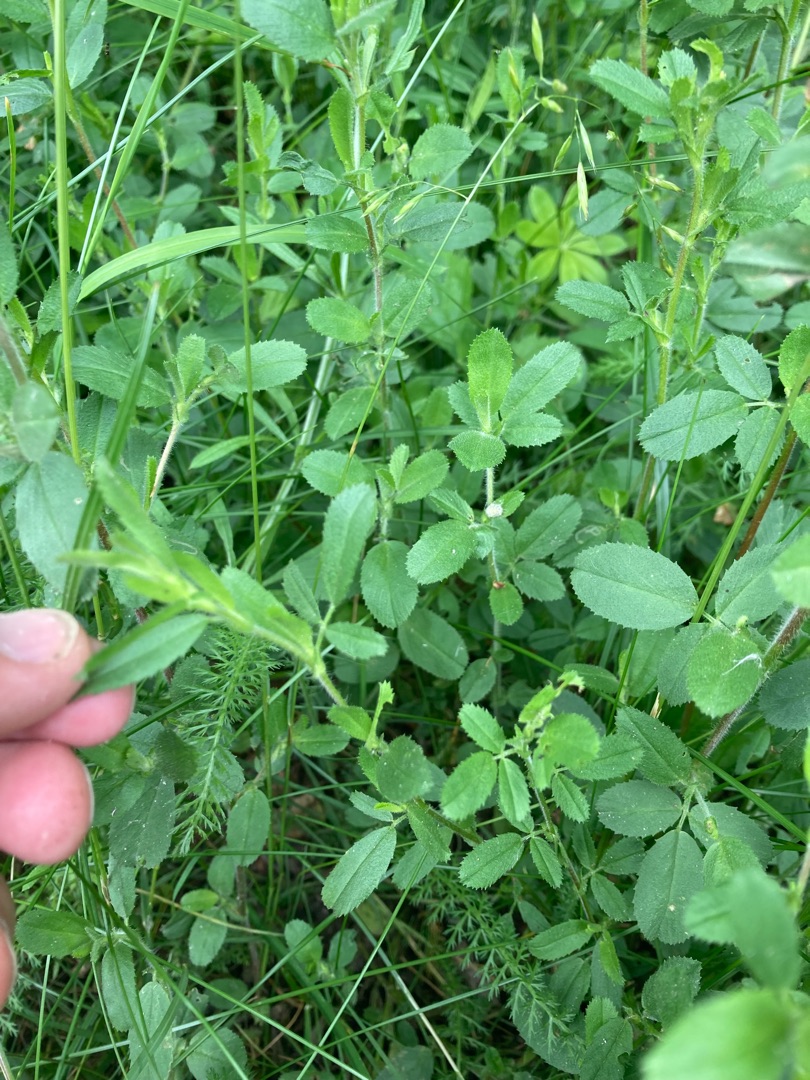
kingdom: Plantae
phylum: Tracheophyta
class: Magnoliopsida
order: Fabales
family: Fabaceae
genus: Ononis
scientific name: Ononis spinosa
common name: Krageklo
